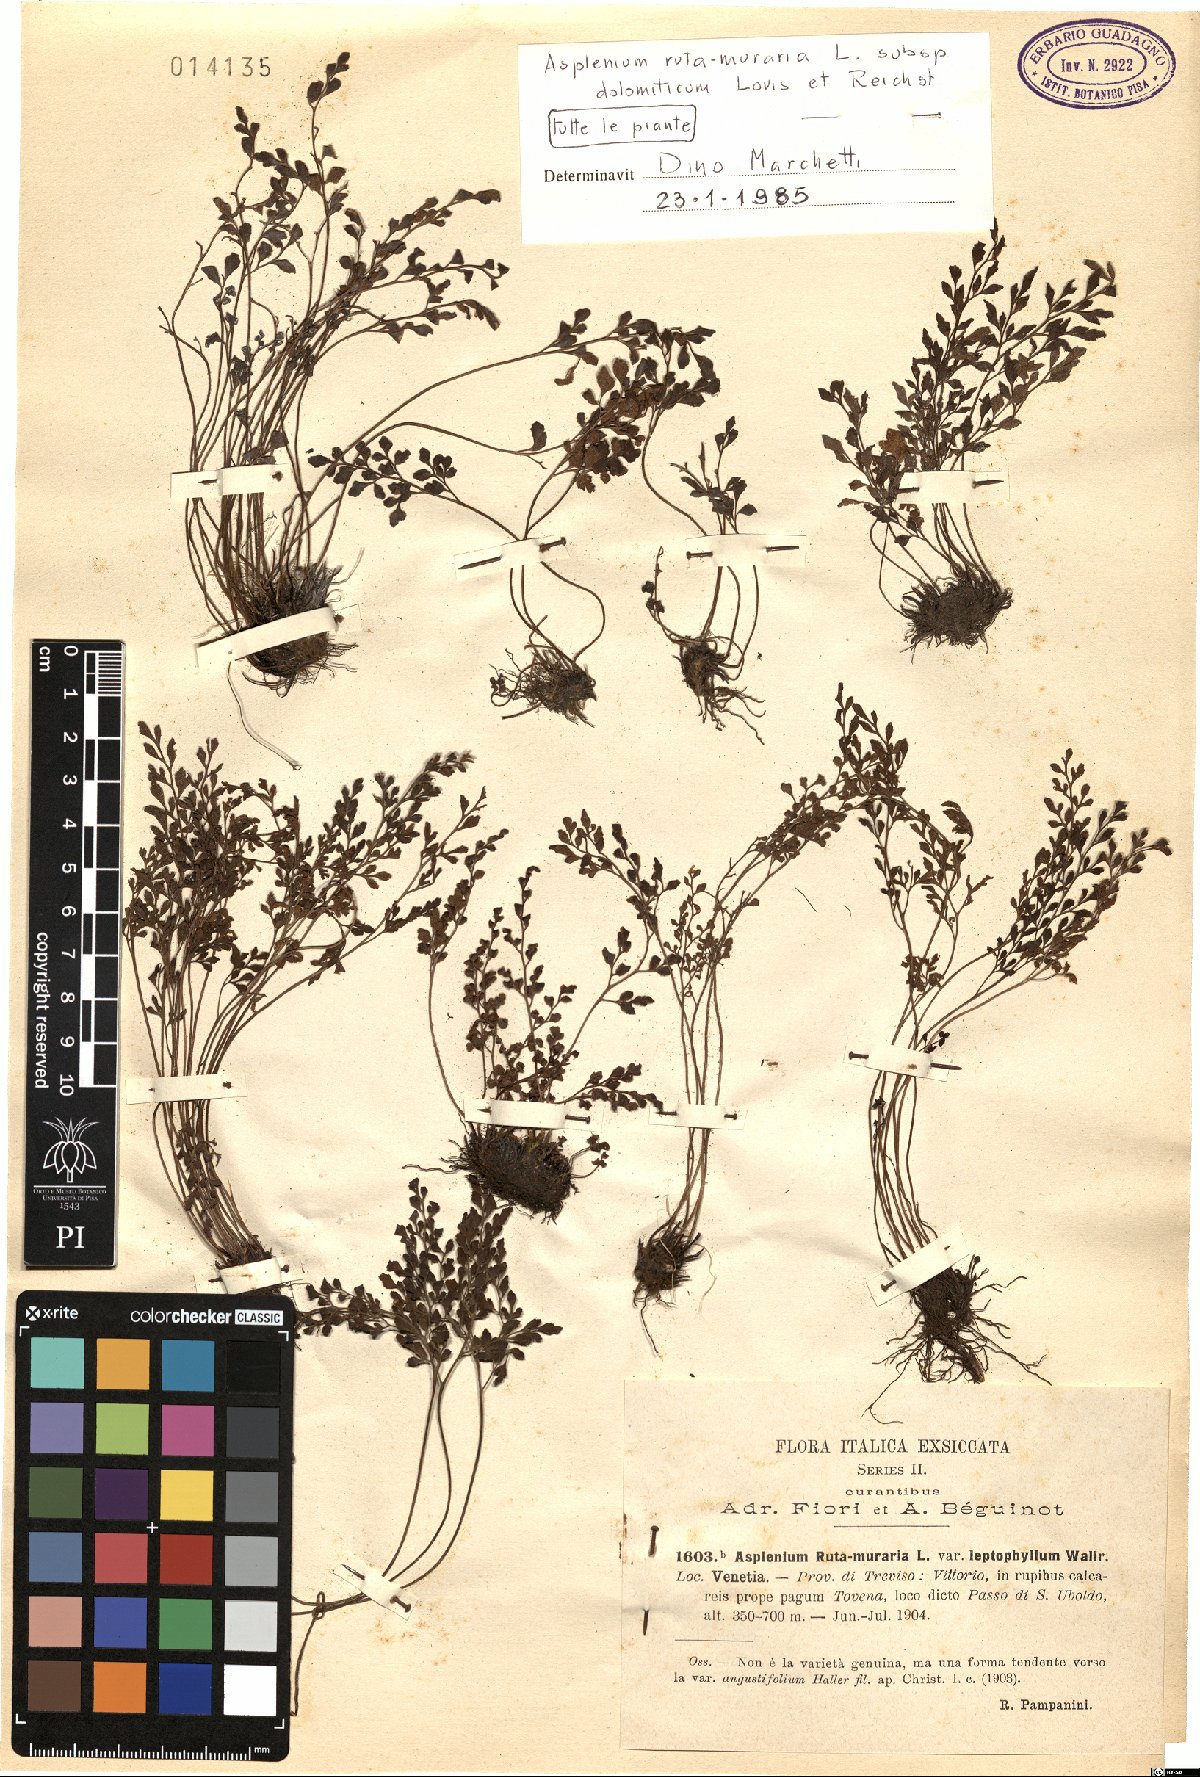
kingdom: Plantae
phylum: Tracheophyta
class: Polypodiopsida
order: Polypodiales
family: Aspleniaceae
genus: Asplenium
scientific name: Asplenium ruta-muraria
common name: Wall-rue
